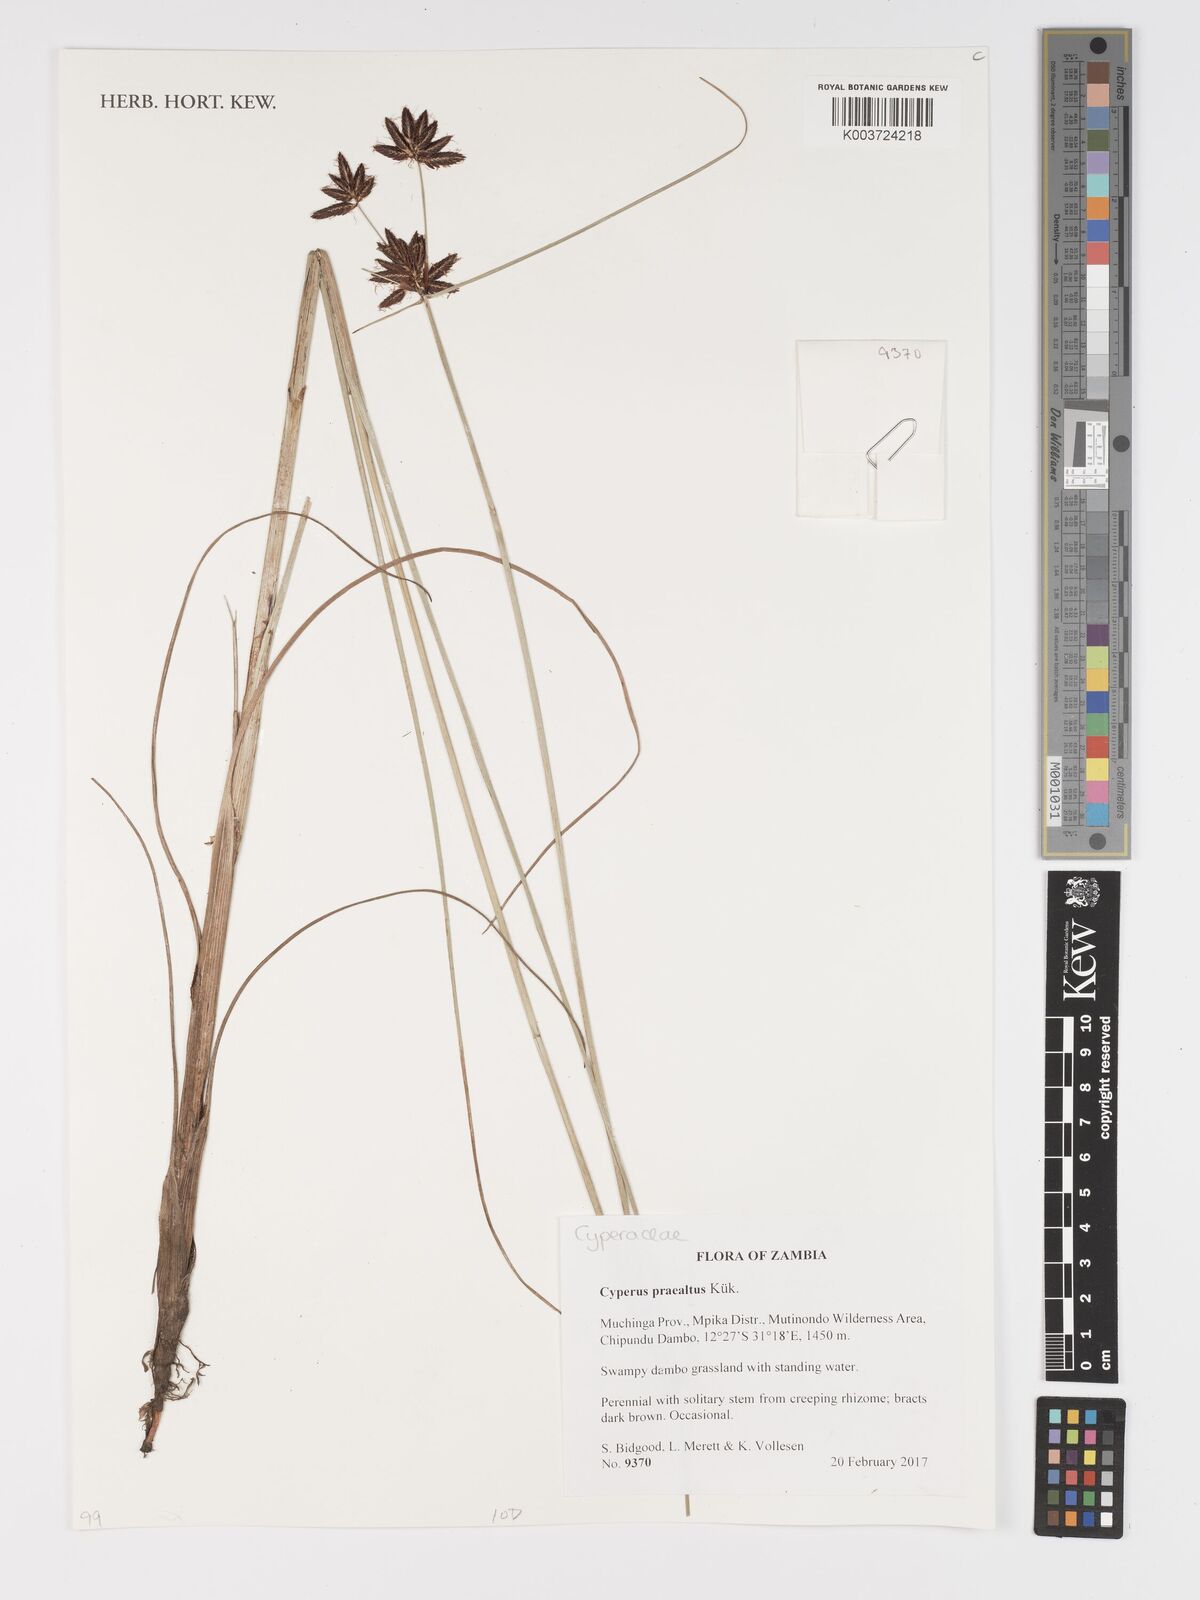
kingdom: Plantae
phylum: Tracheophyta
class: Liliopsida
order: Poales
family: Cyperaceae
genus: Cyperus
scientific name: Cyperus praealtus
